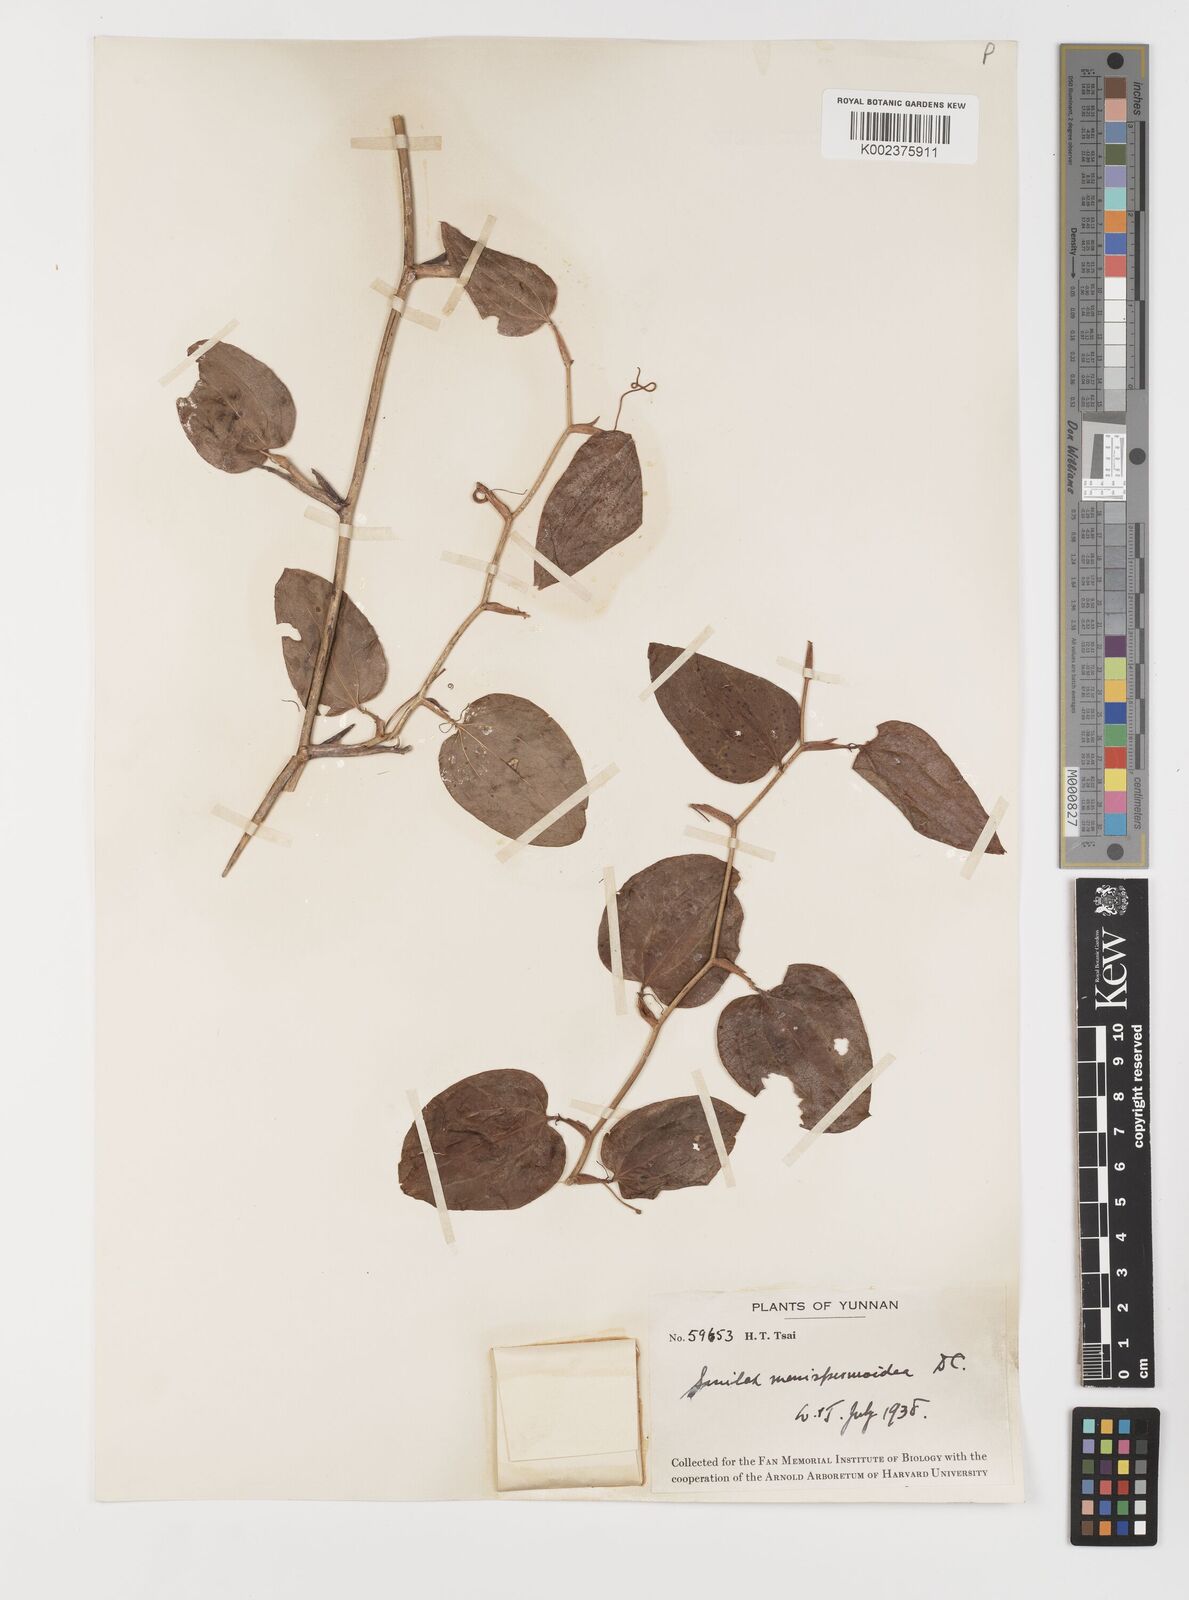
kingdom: Plantae
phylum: Tracheophyta
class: Liliopsida
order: Liliales
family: Smilacaceae
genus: Smilax
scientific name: Smilax menispermoidea
